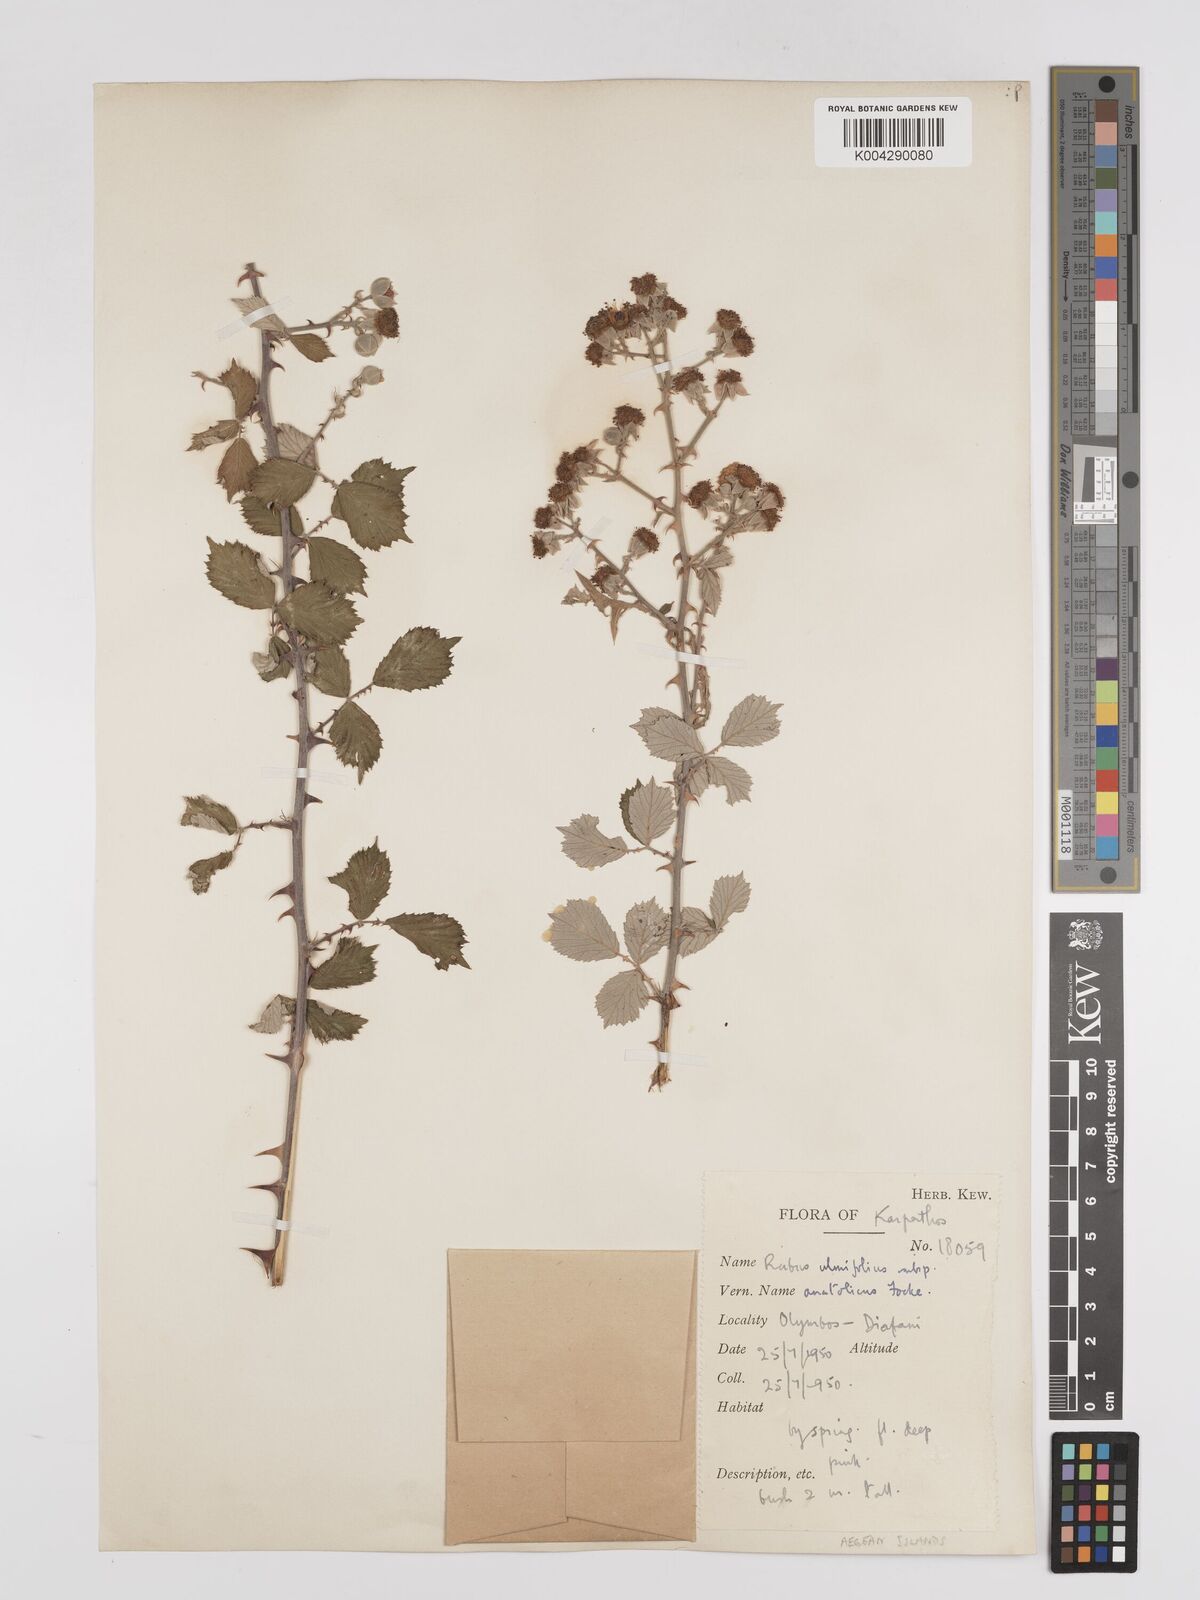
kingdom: Plantae
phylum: Tracheophyta
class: Magnoliopsida
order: Rosales
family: Rosaceae
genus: Rubus
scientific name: Rubus sanctus
